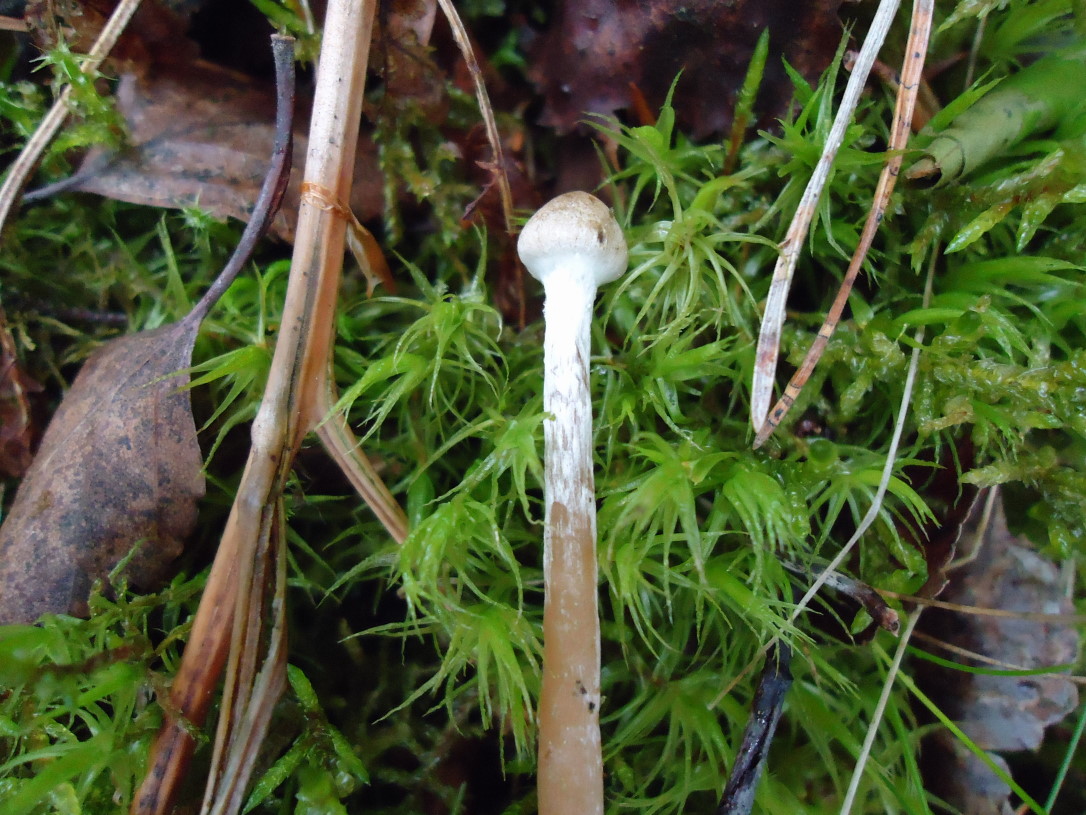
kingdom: Fungi
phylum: Basidiomycota
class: Agaricomycetes
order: Agaricales
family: Hymenogastraceae
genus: Galerina
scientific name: Galerina paludosa
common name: mose-hjelmhat
